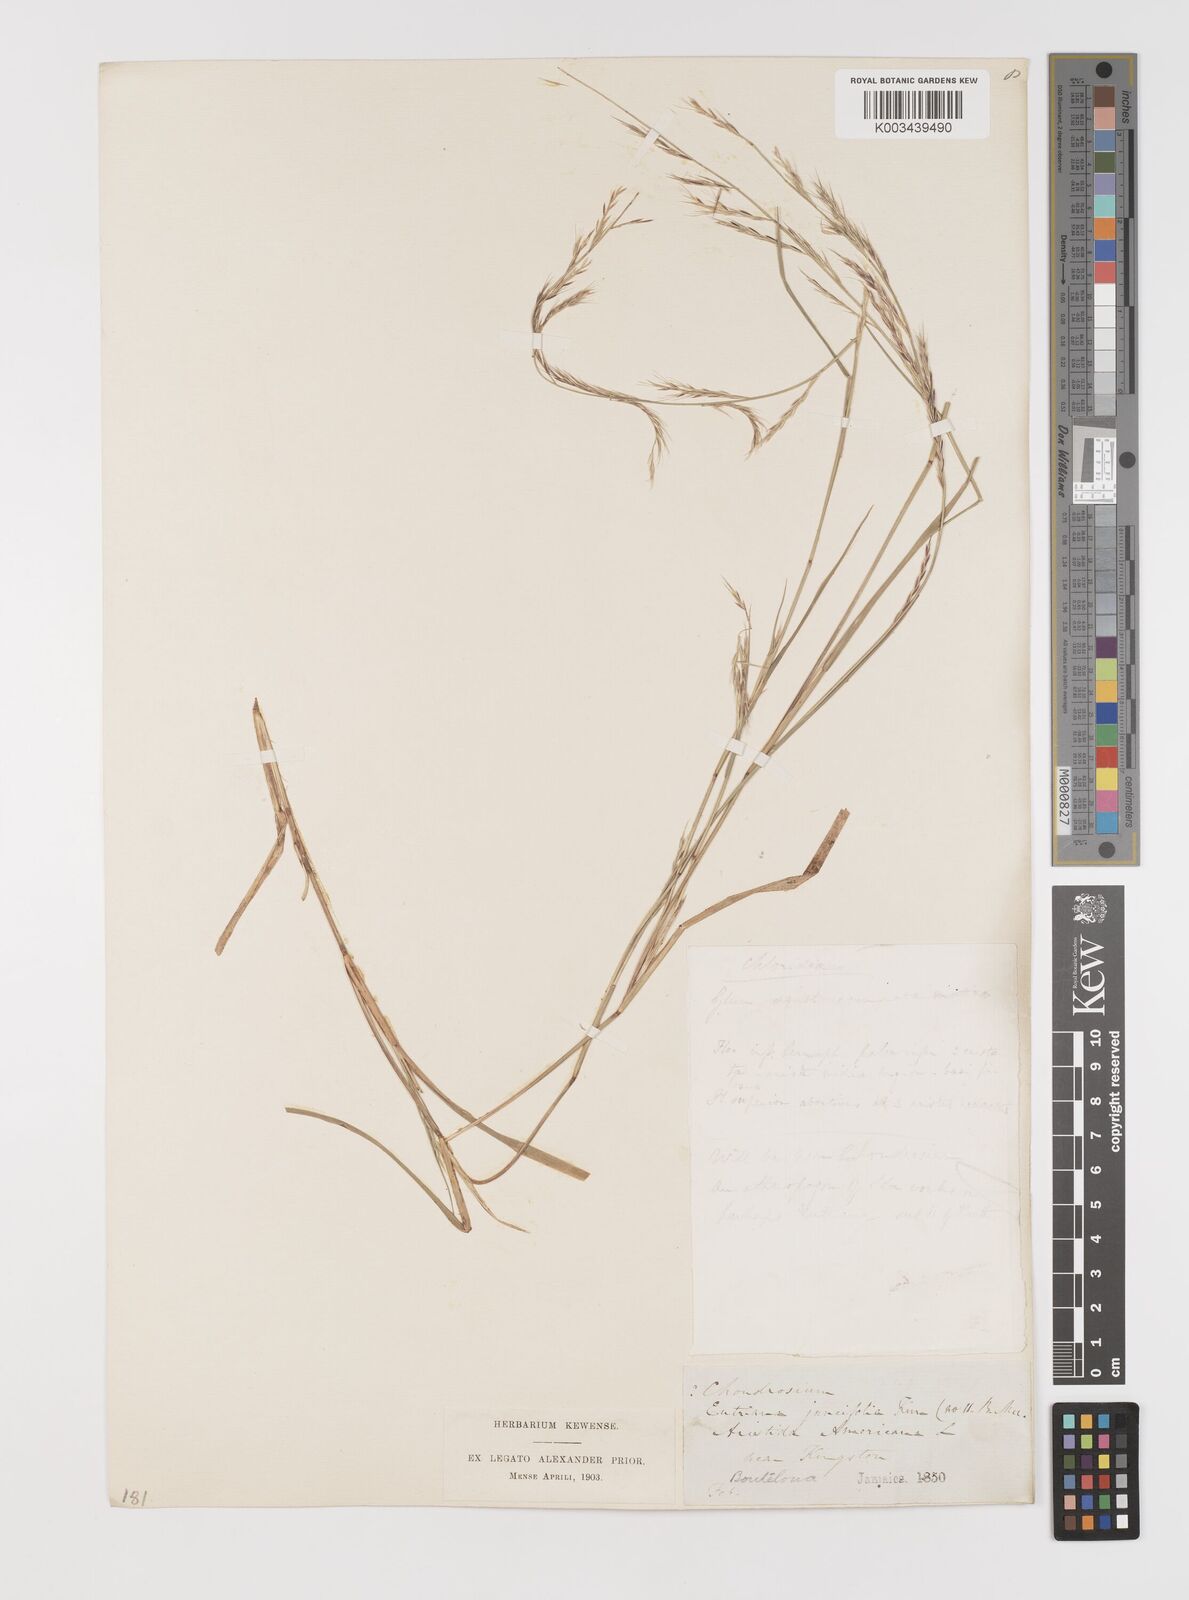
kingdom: Plantae
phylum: Tracheophyta
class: Liliopsida
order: Poales
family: Poaceae
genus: Bouteloua
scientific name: Bouteloua americana
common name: Mule grass
